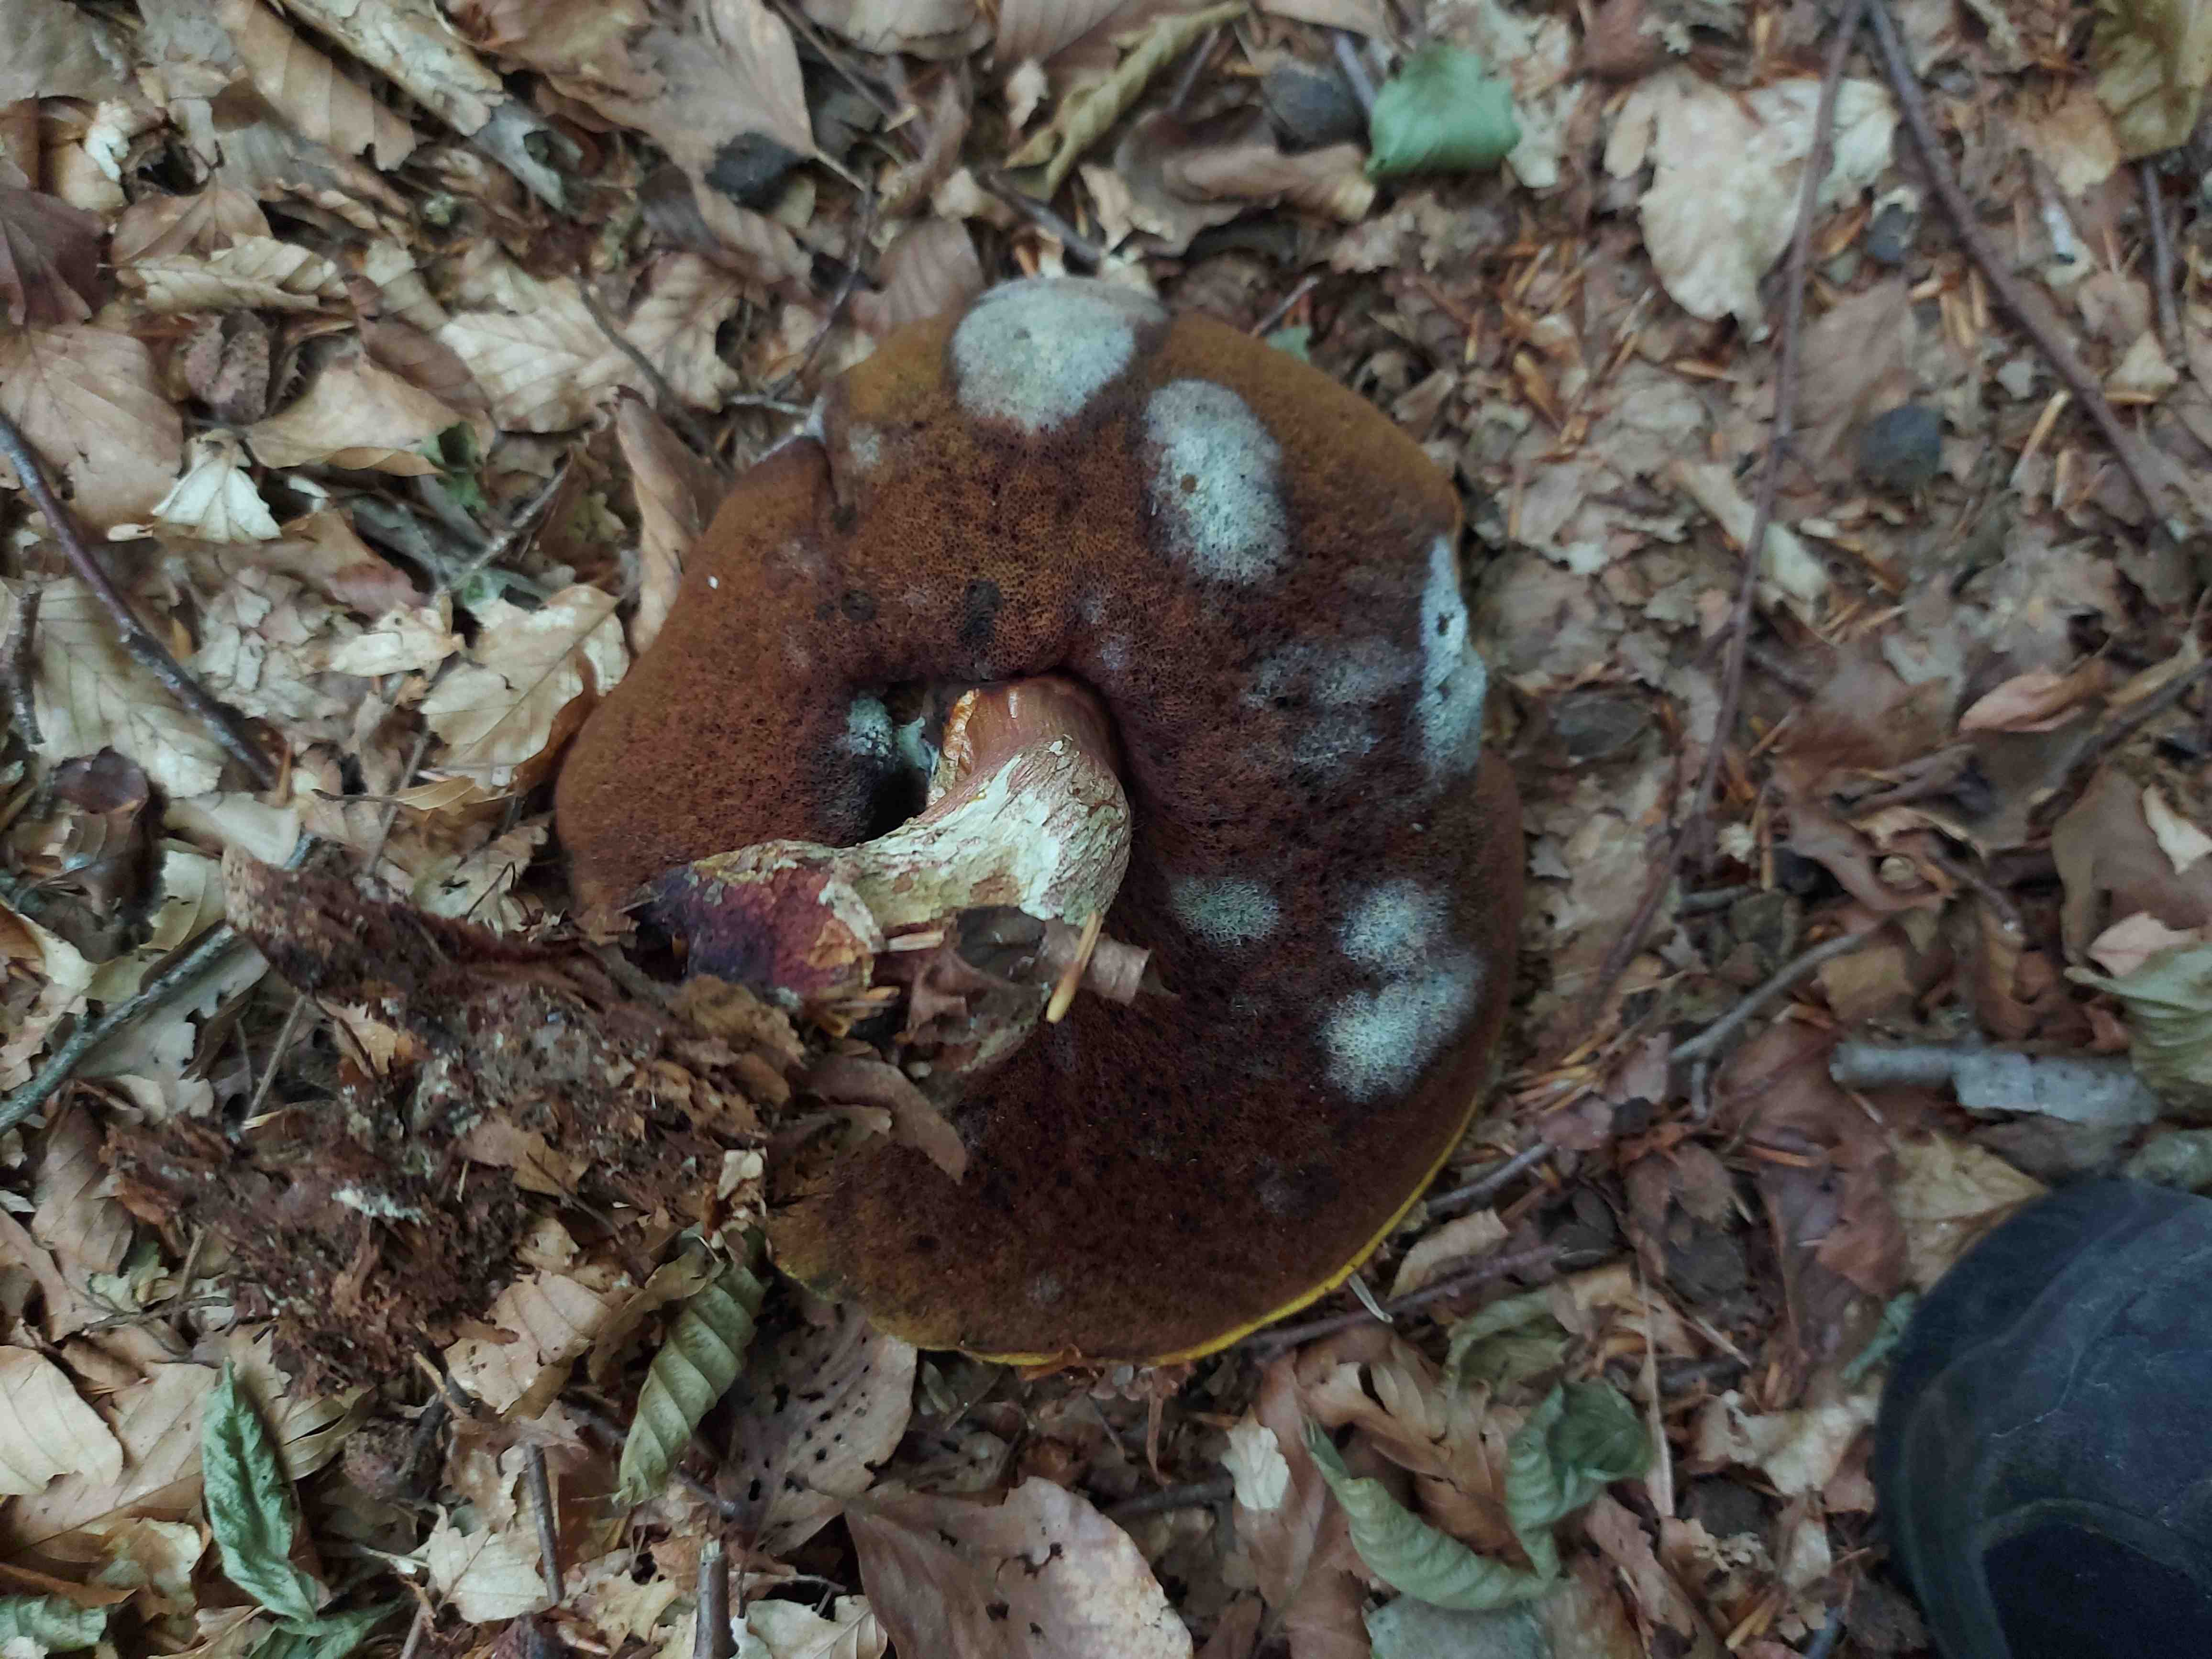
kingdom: Fungi
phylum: Basidiomycota
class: Agaricomycetes
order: Boletales
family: Boletaceae
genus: Neoboletus
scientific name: Neoboletus erythropus
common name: punktstokket indigorørhat
